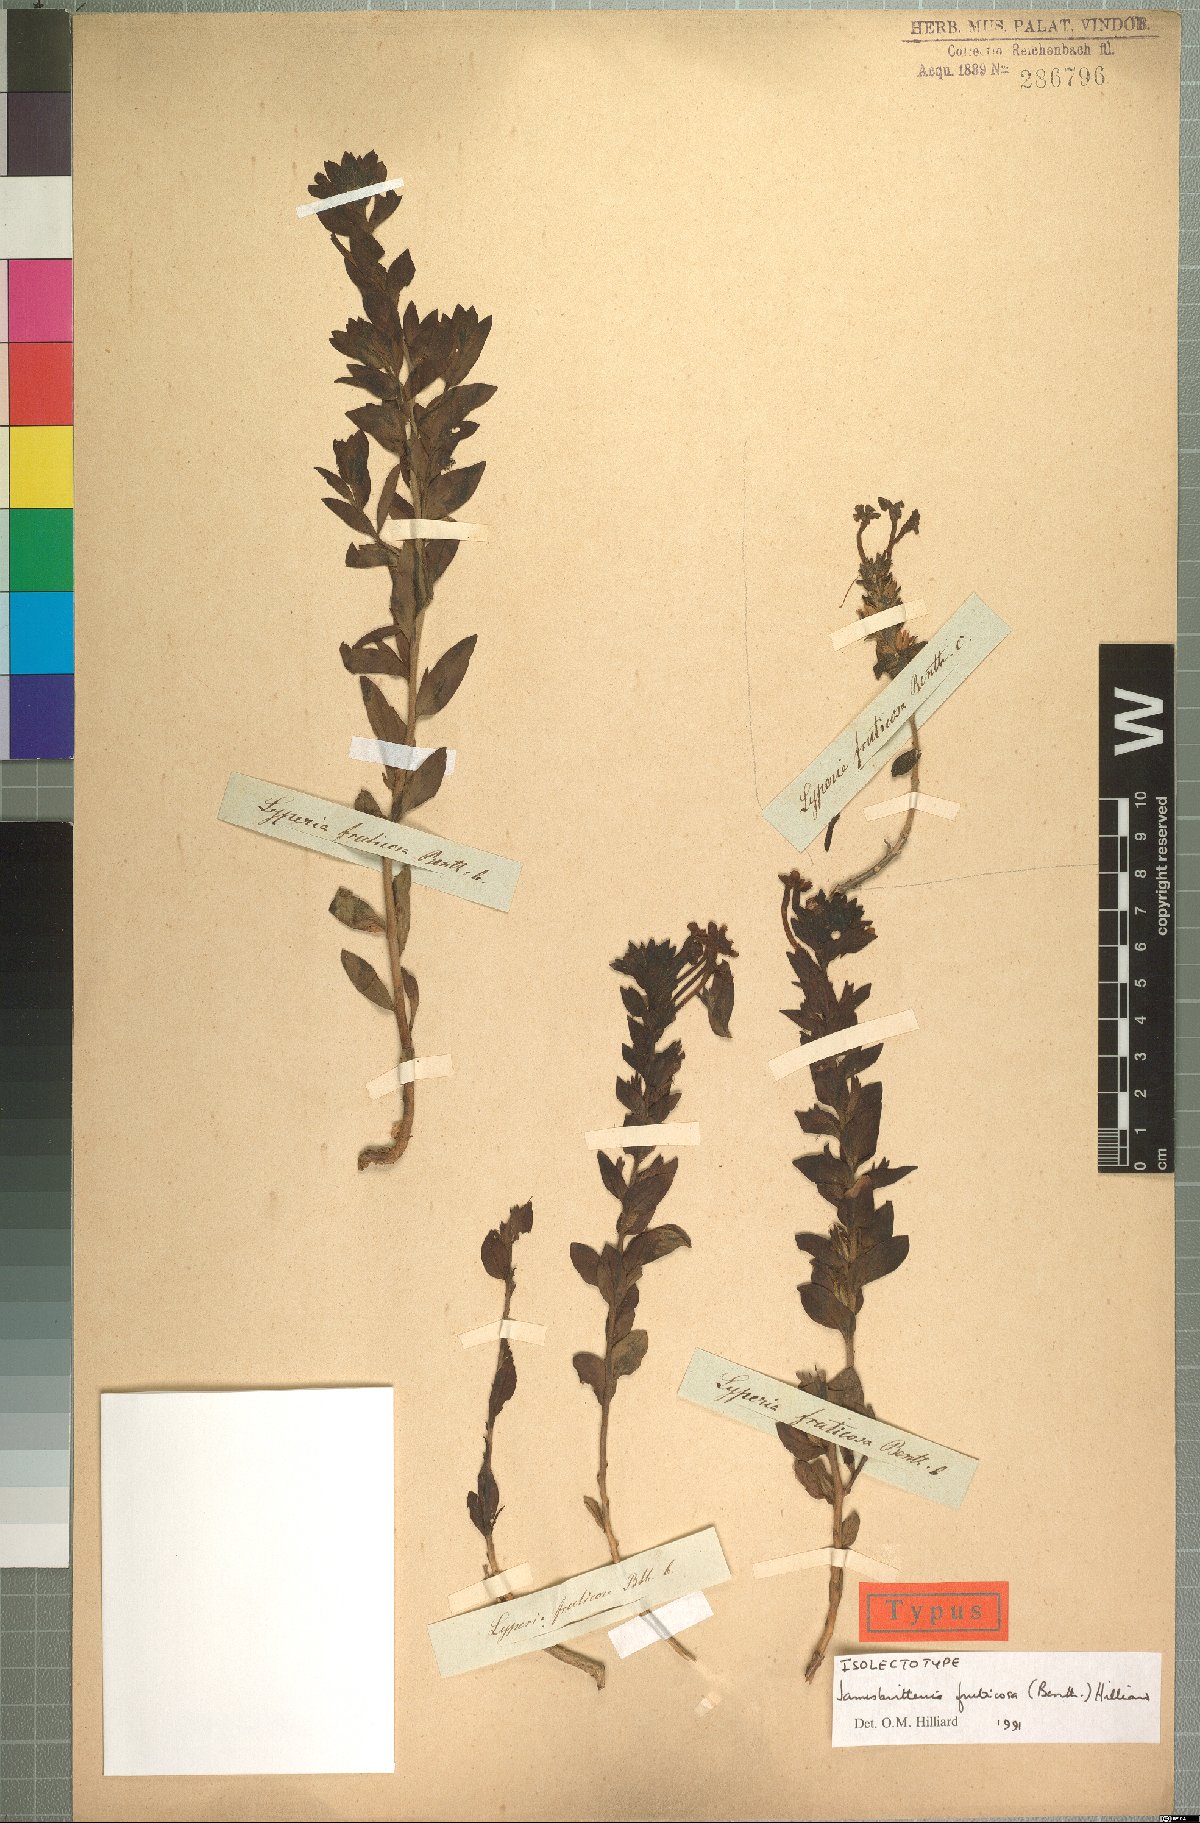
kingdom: Plantae
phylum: Tracheophyta
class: Magnoliopsida
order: Lamiales
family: Scrophulariaceae
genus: Jamesbrittenia
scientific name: Jamesbrittenia fruticosa
